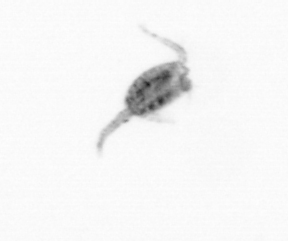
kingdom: Animalia
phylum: Arthropoda
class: Copepoda
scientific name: Copepoda
